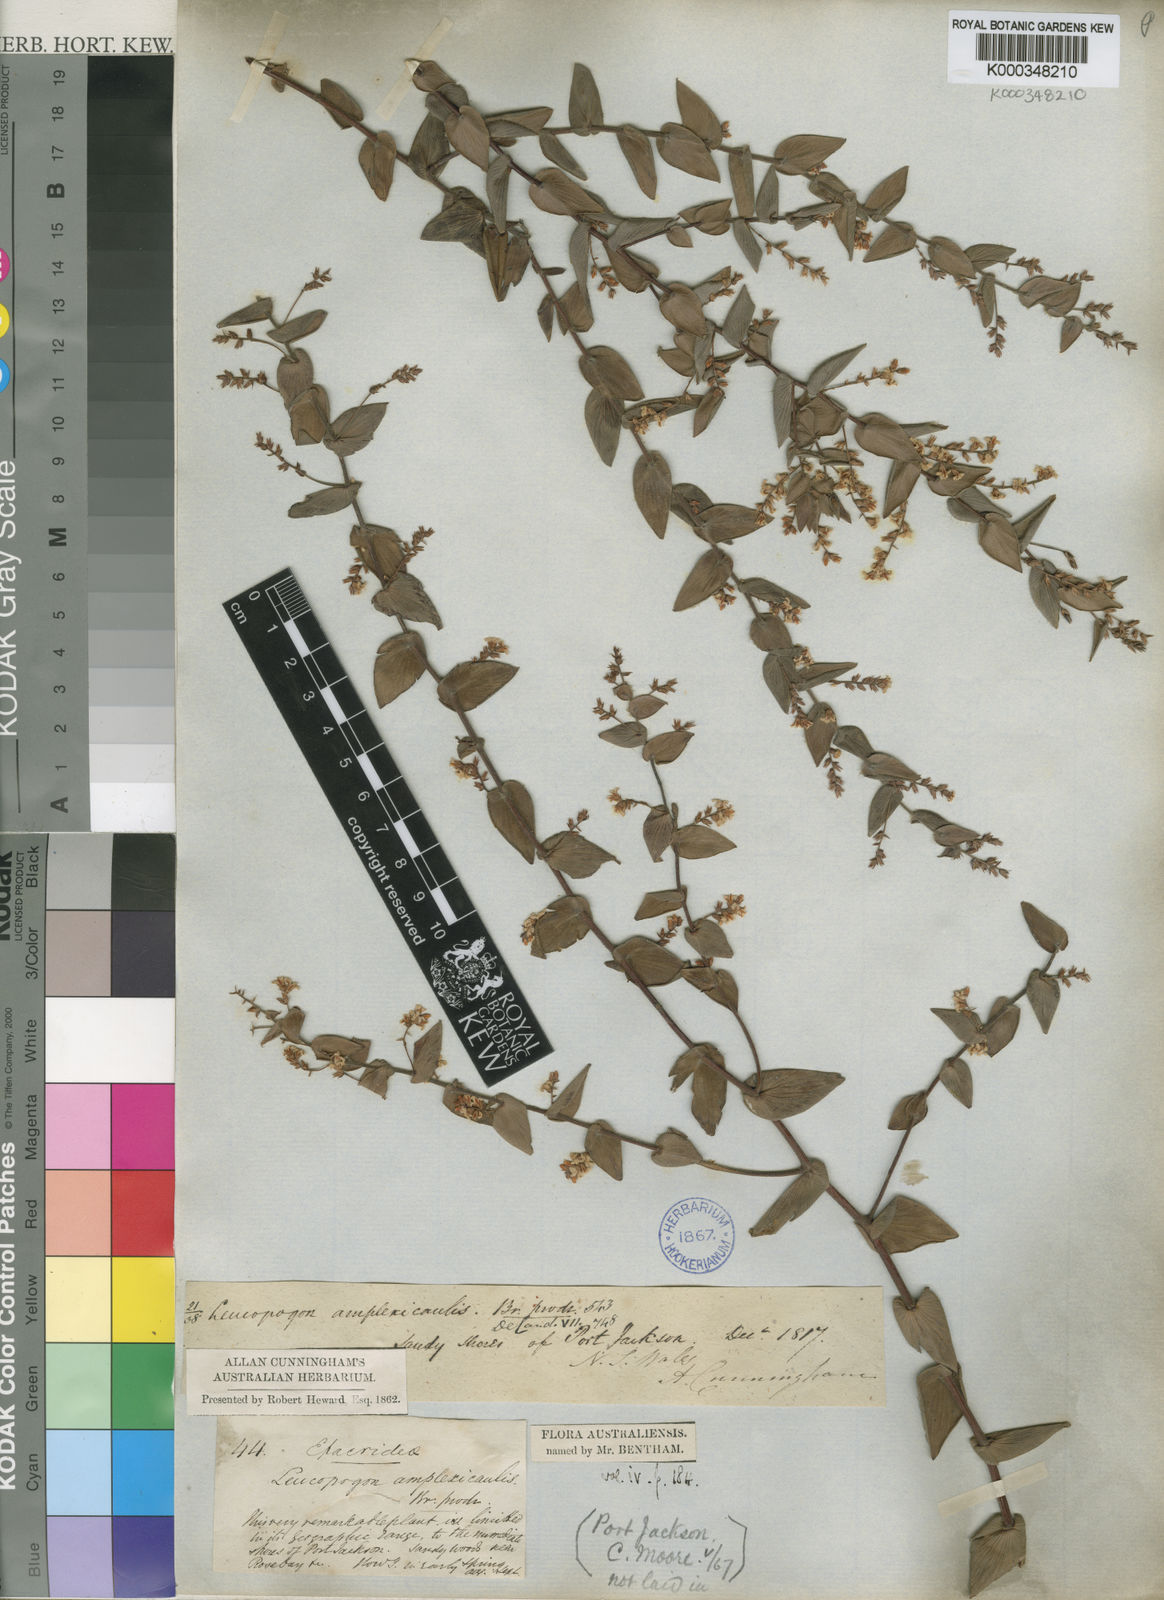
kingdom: Plantae
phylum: Tracheophyta
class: Magnoliopsida
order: Ericales
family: Ericaceae
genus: Leucopogon
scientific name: Leucopogon amplexicaulis
